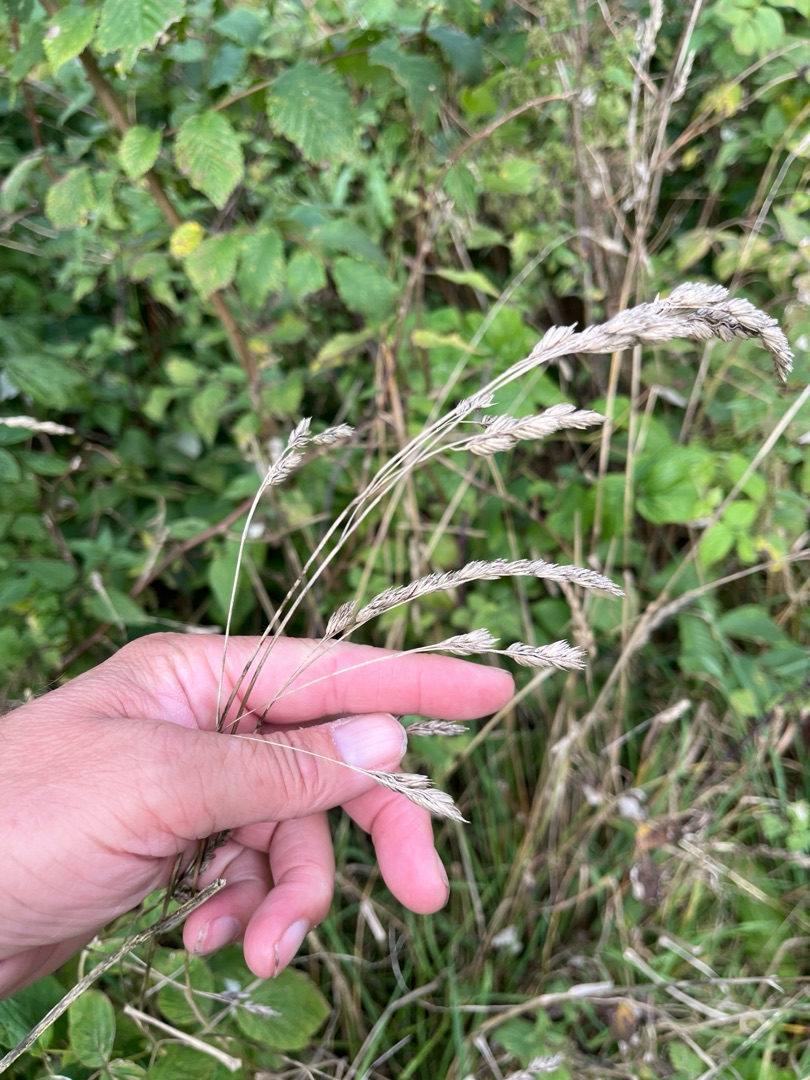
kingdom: Plantae
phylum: Tracheophyta
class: Liliopsida
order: Poales
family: Poaceae
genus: Dactylis
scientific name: Dactylis glomerata
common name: Almindelig hundegræs
